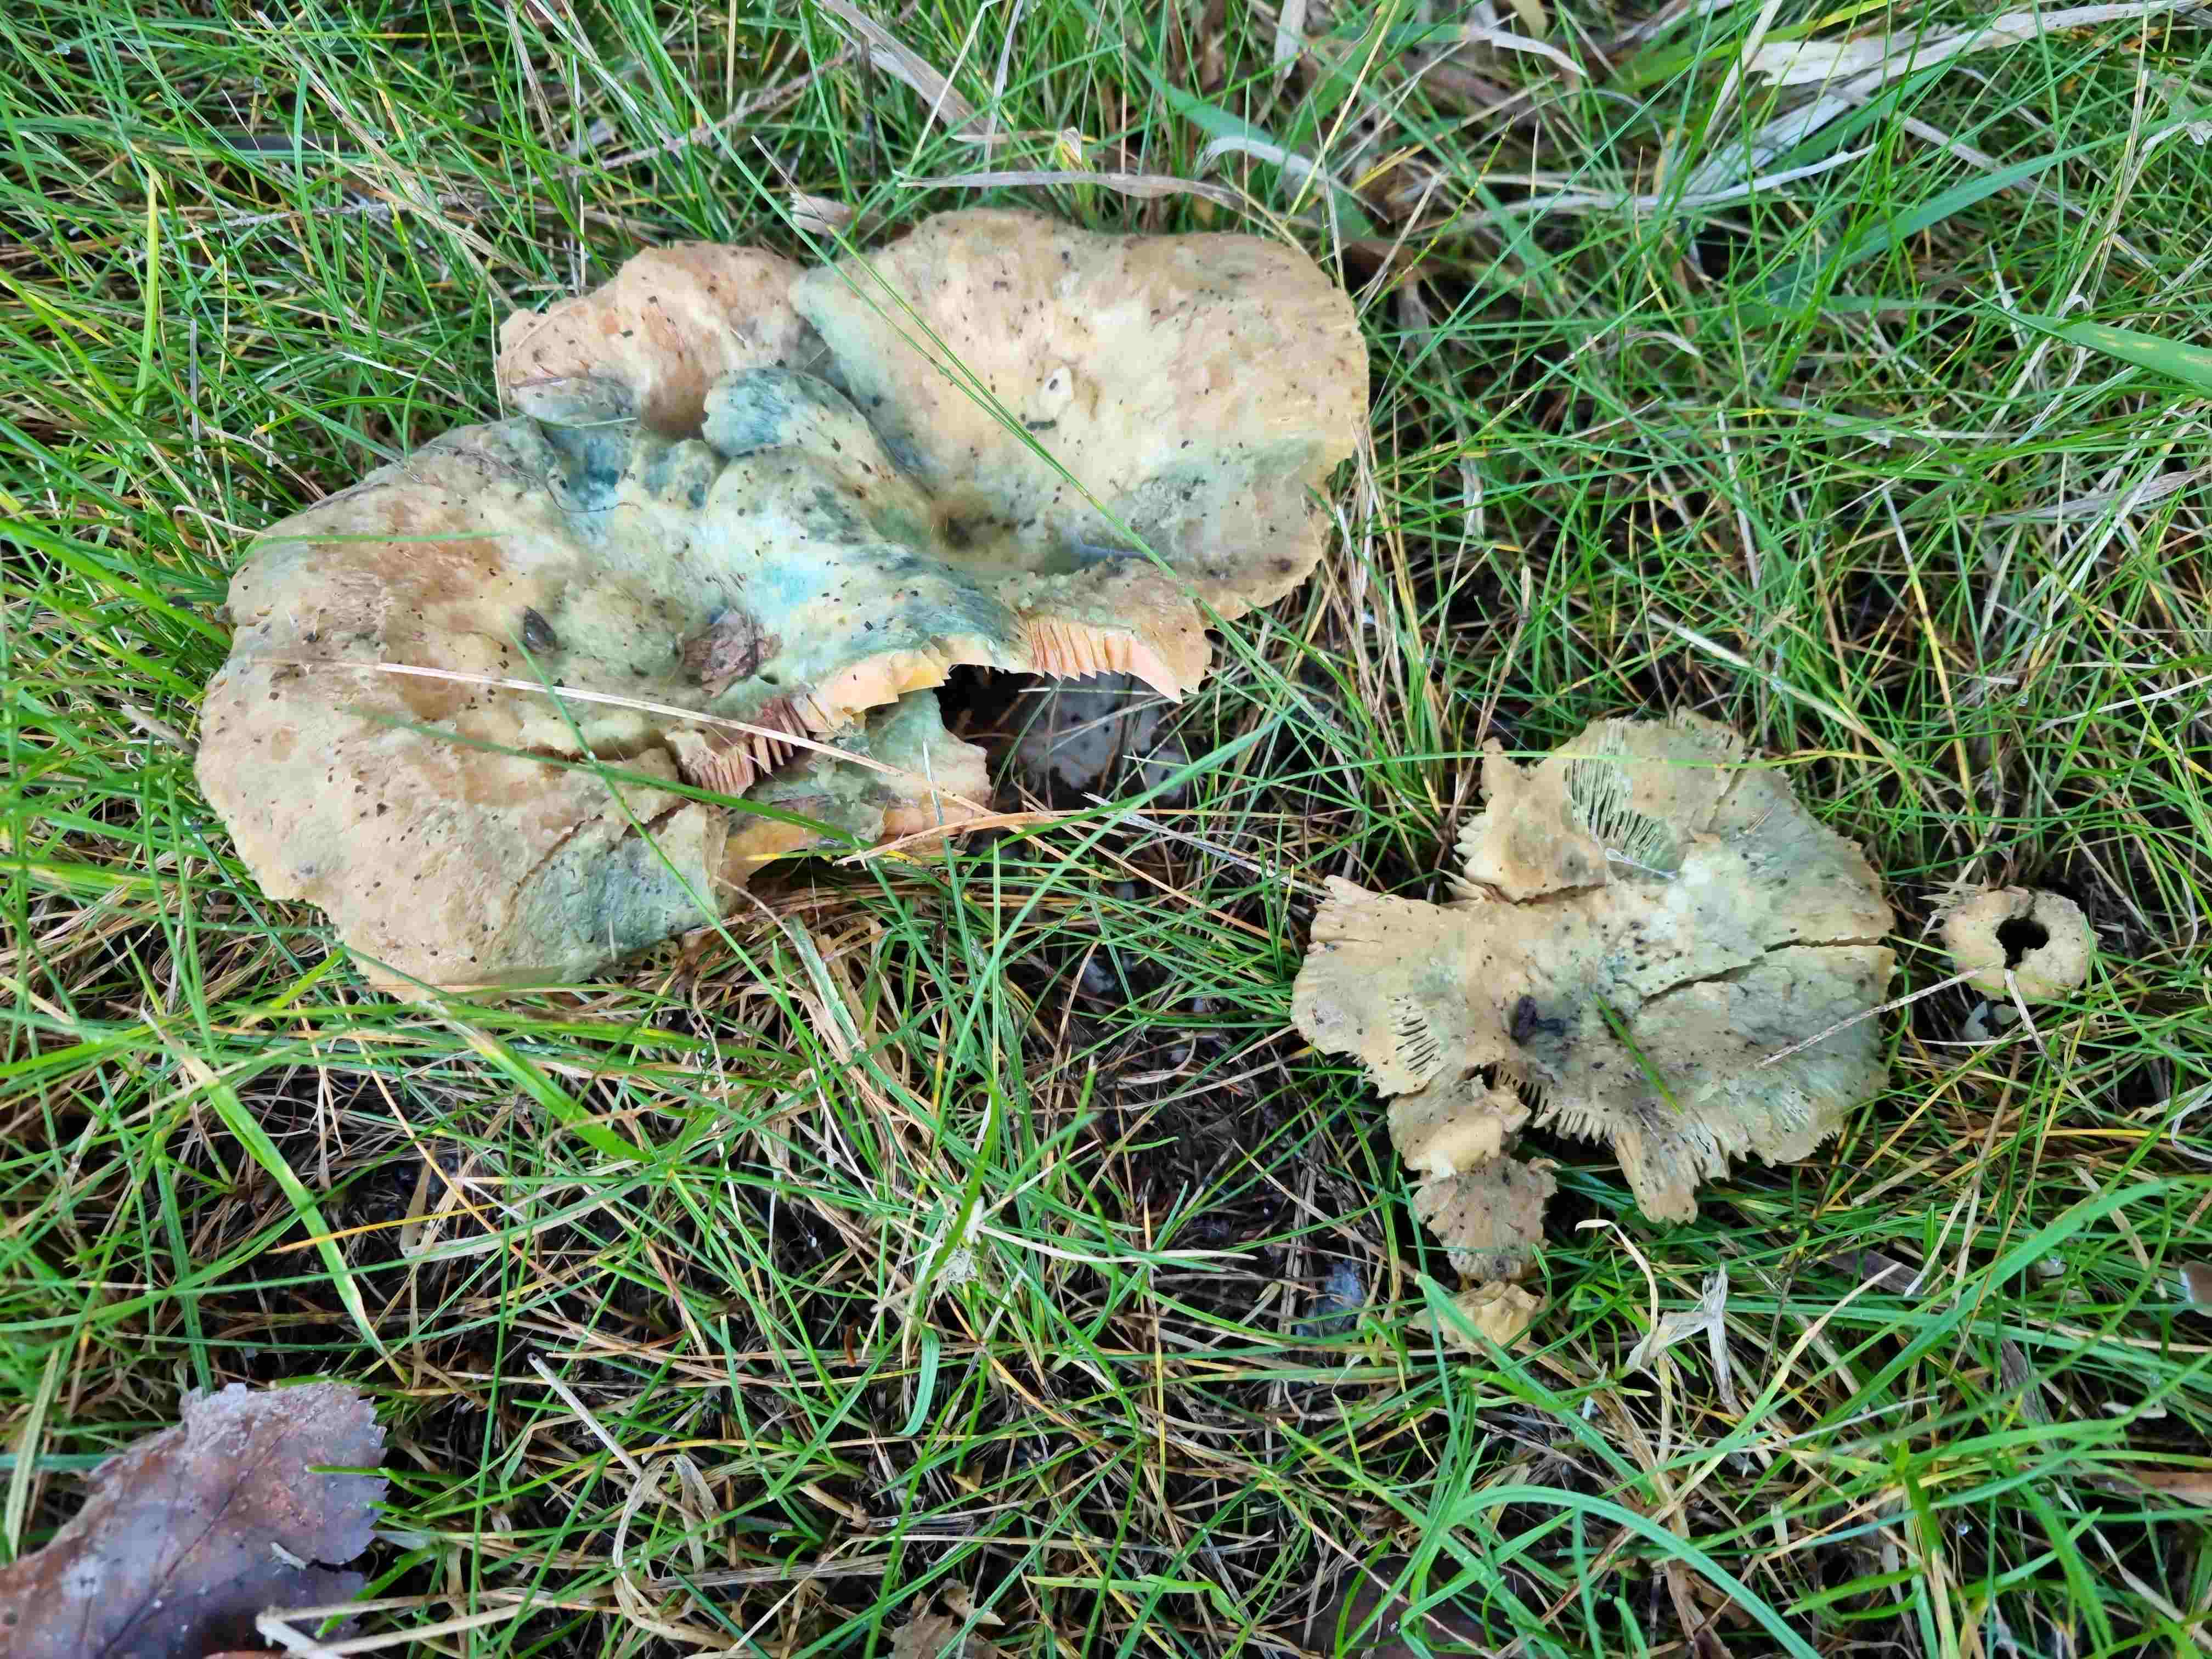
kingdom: Fungi
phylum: Basidiomycota
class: Agaricomycetes
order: Russulales
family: Russulaceae
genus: Lactarius
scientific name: Lactarius deterrimus
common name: gran-mælkehat
